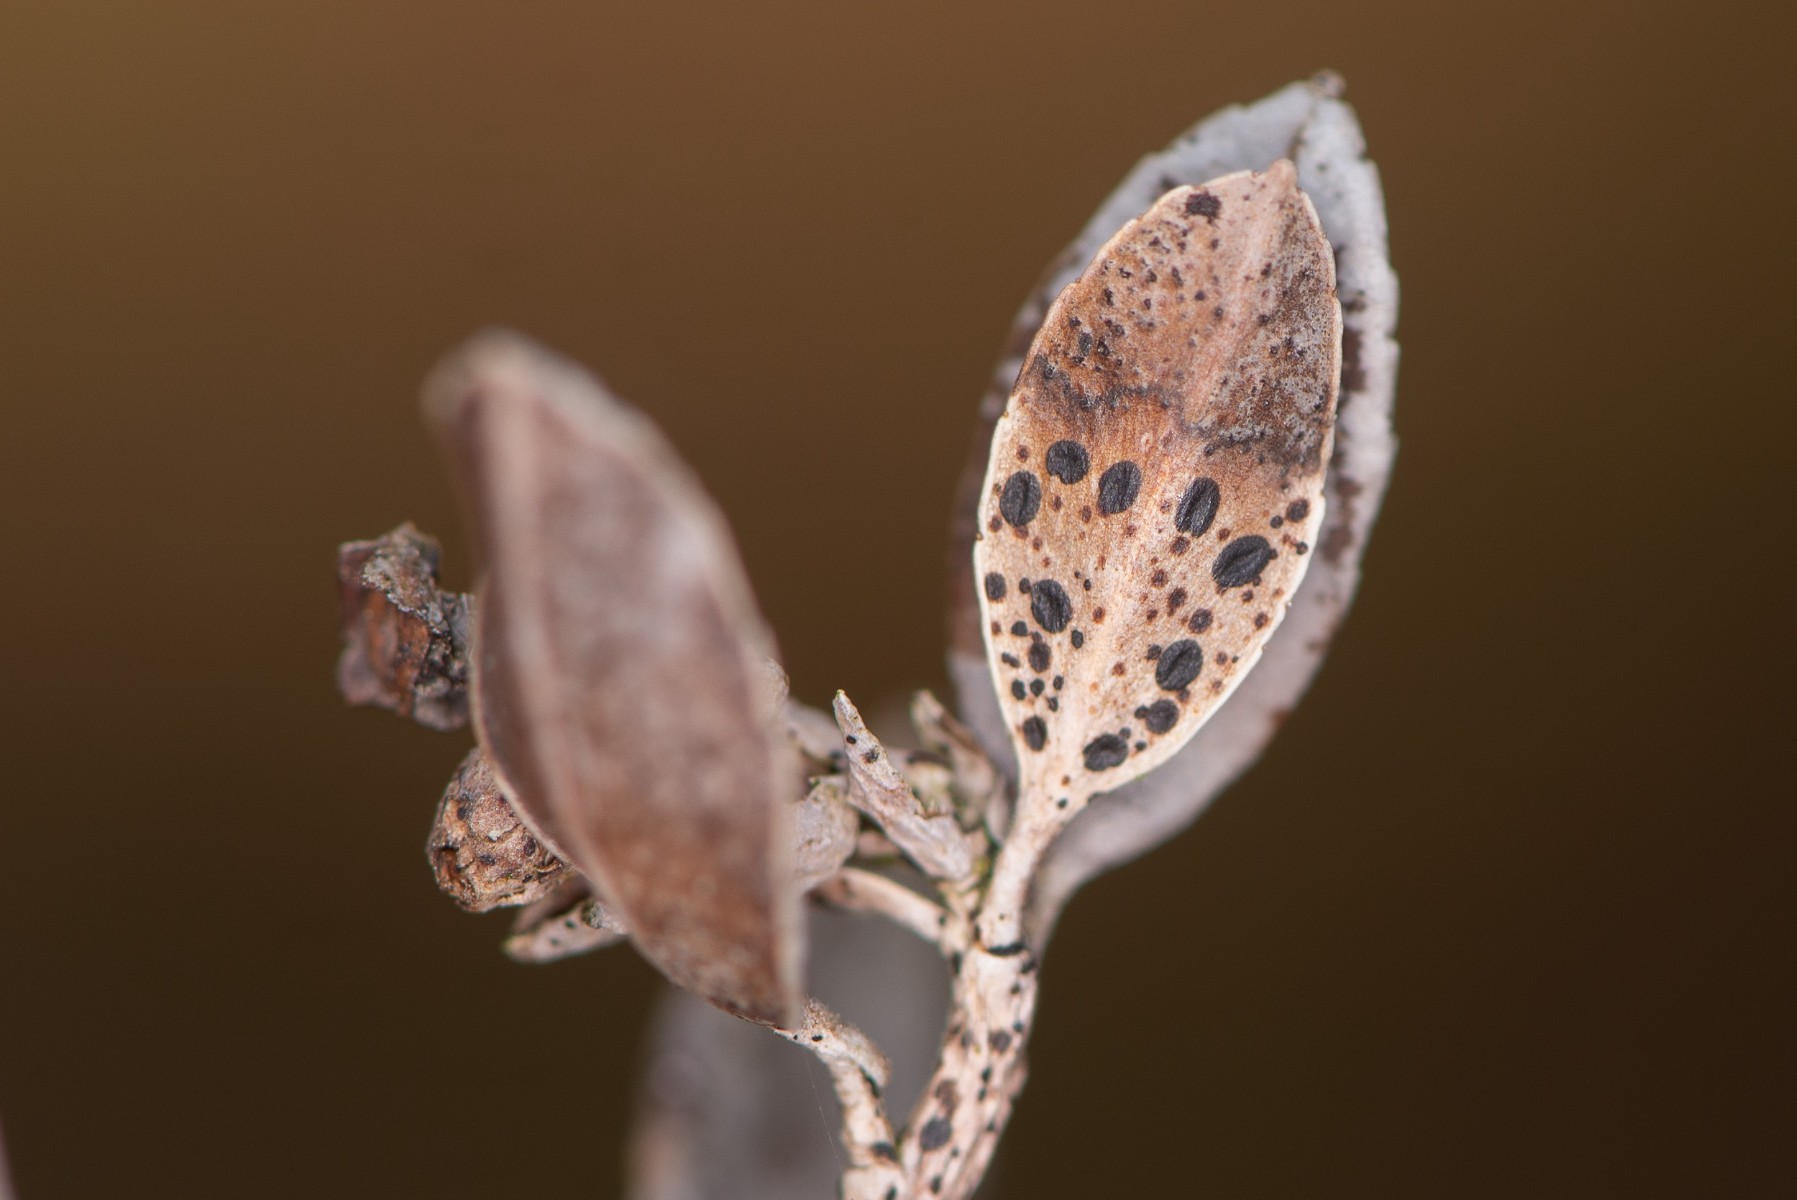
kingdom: Fungi
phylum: Ascomycota
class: Leotiomycetes
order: Rhytismatales
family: Rhytismataceae
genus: Lophodermium
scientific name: Lophodermium melaleucum
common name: tyttebær-fureplet
